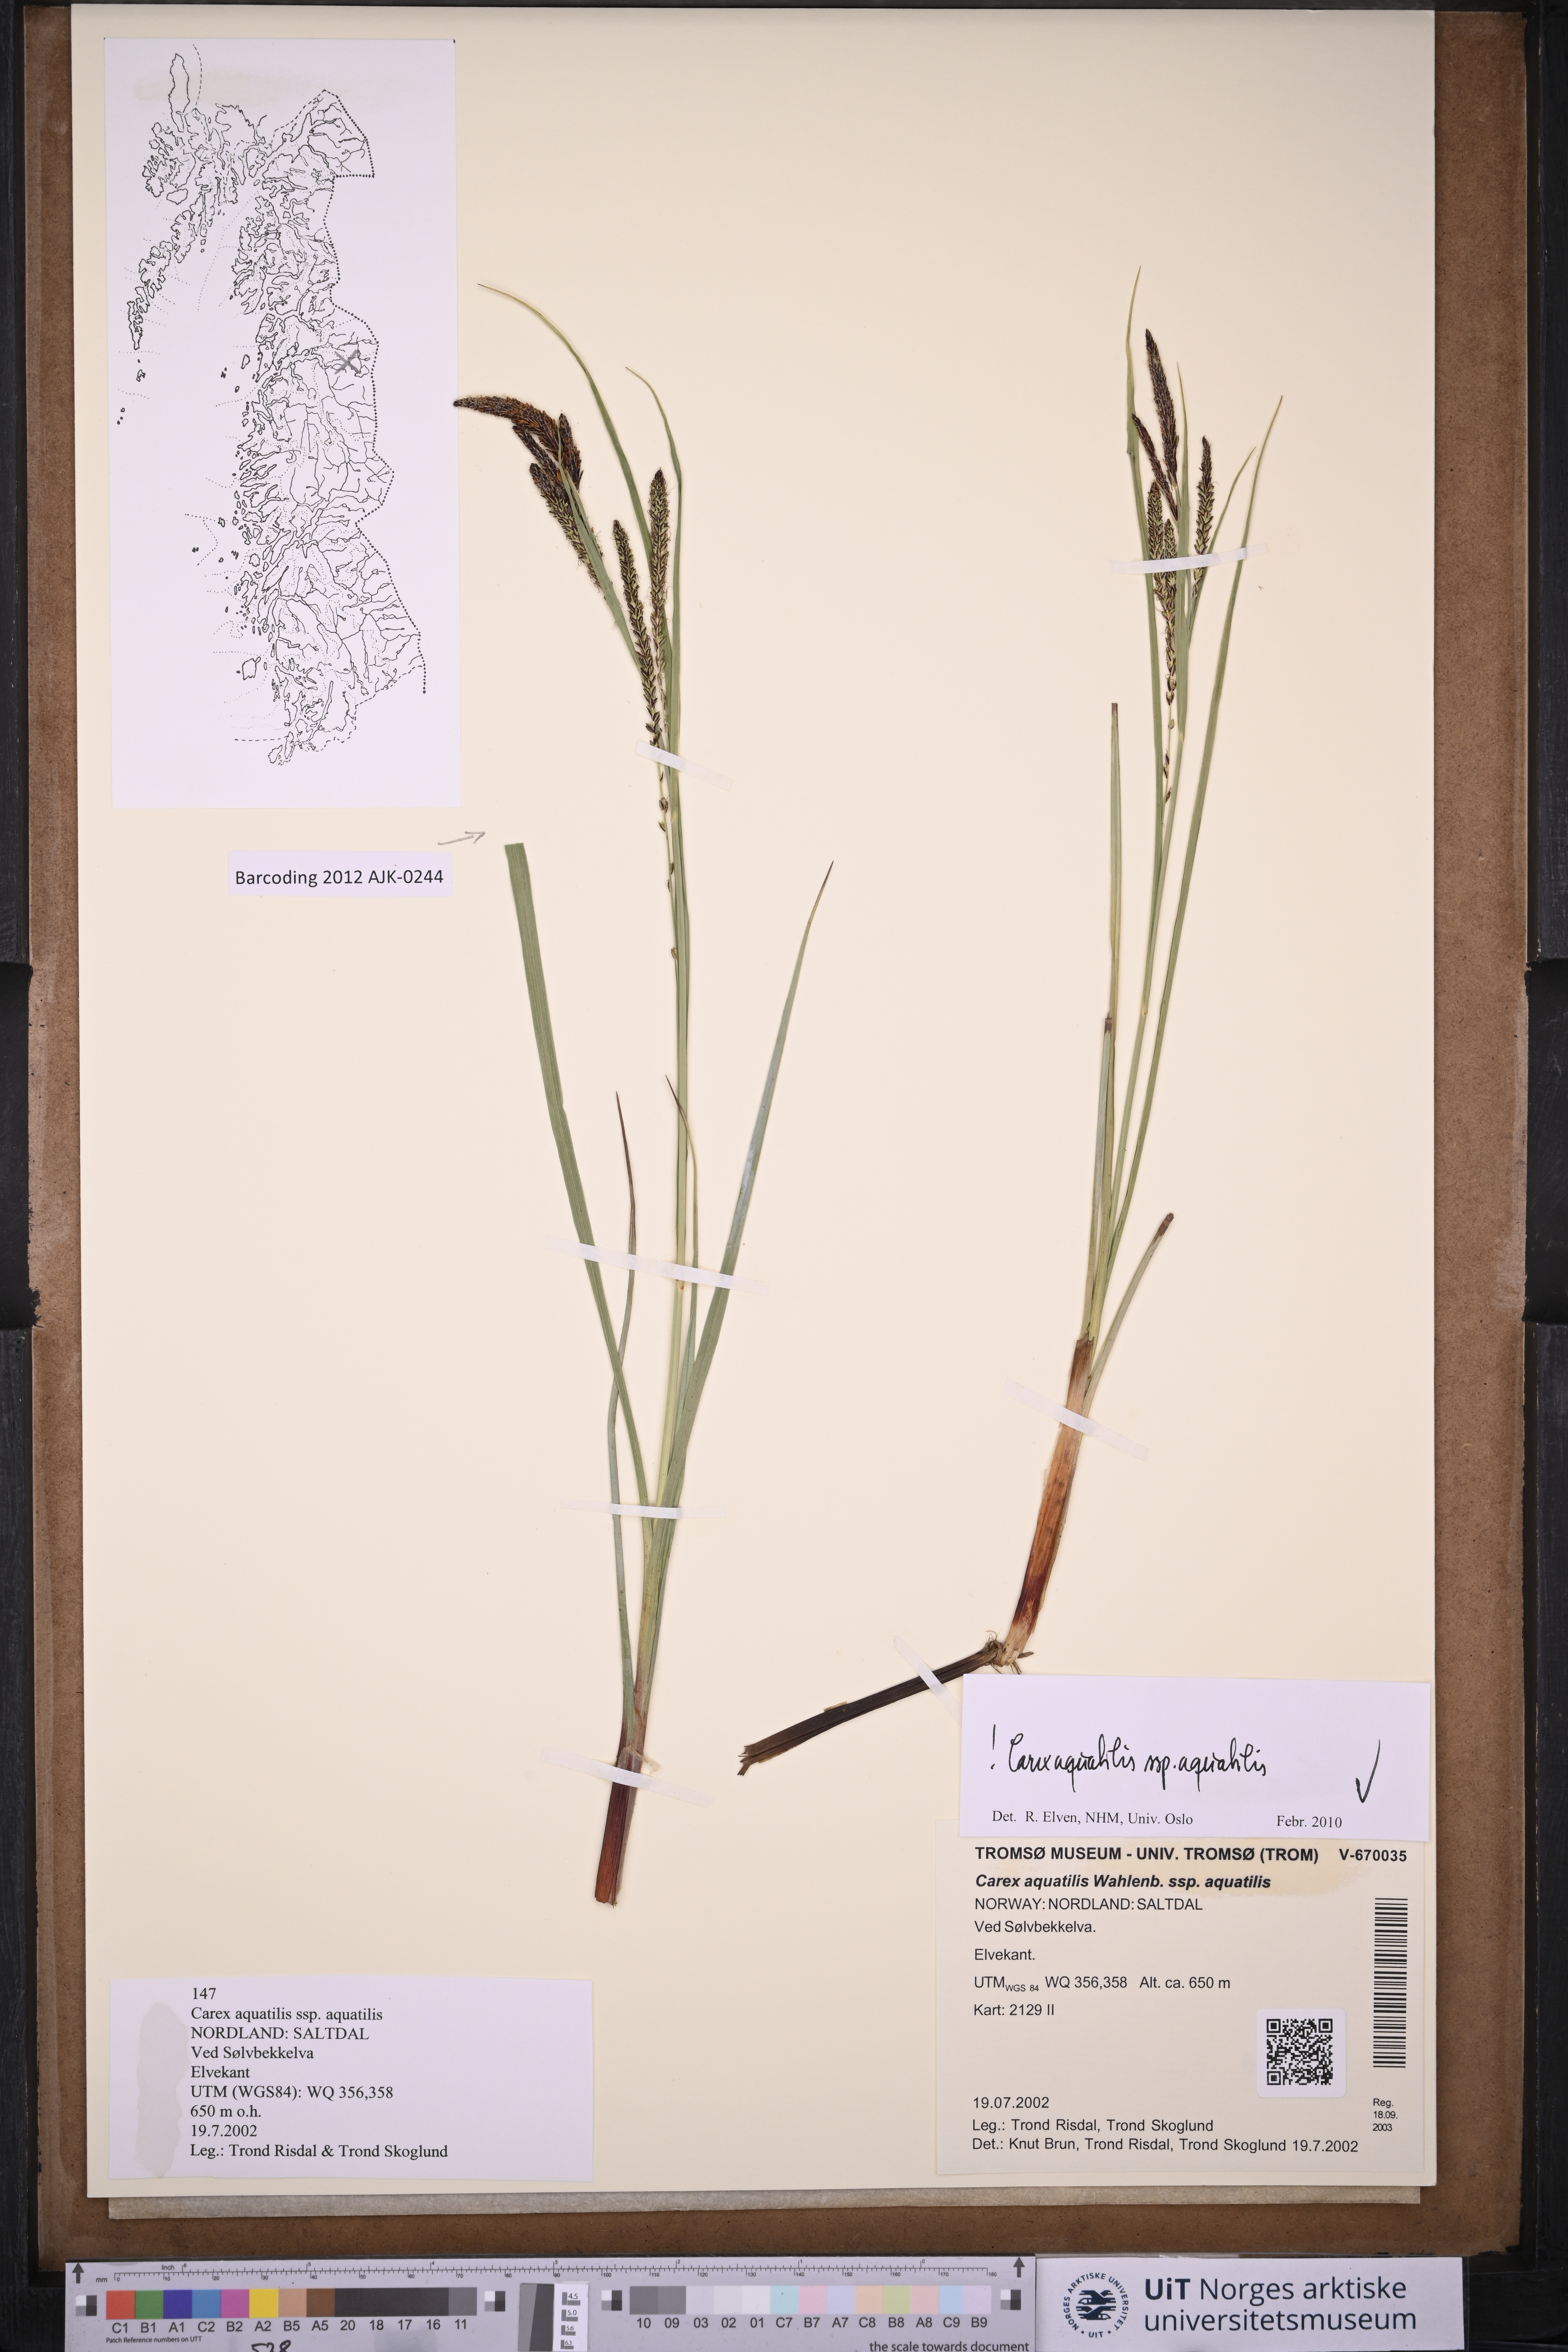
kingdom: Plantae
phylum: Tracheophyta
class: Liliopsida
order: Poales
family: Cyperaceae
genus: Carex
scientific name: Carex aquatilis
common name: Water sedge
